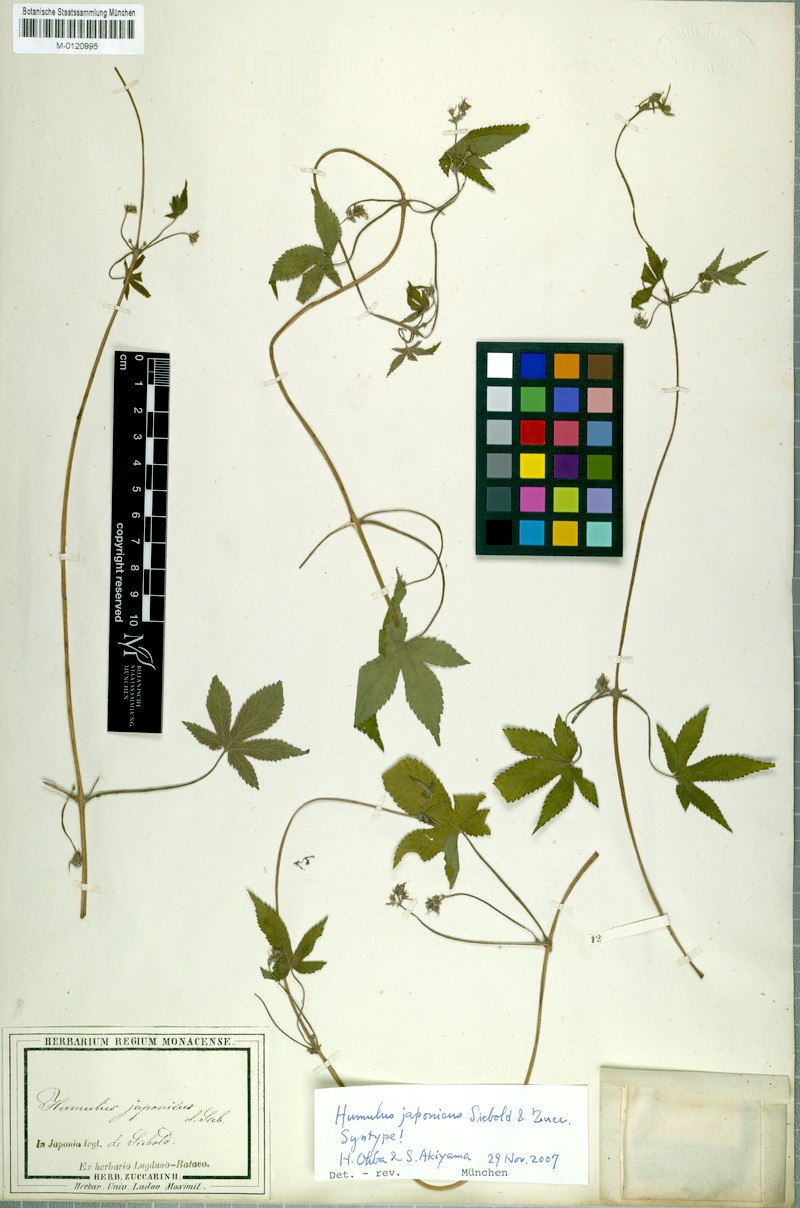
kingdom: Plantae
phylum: Tracheophyta
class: Magnoliopsida
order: Rosales
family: Cannabaceae
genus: Humulus
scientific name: Humulus scandens
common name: Japanese hop
